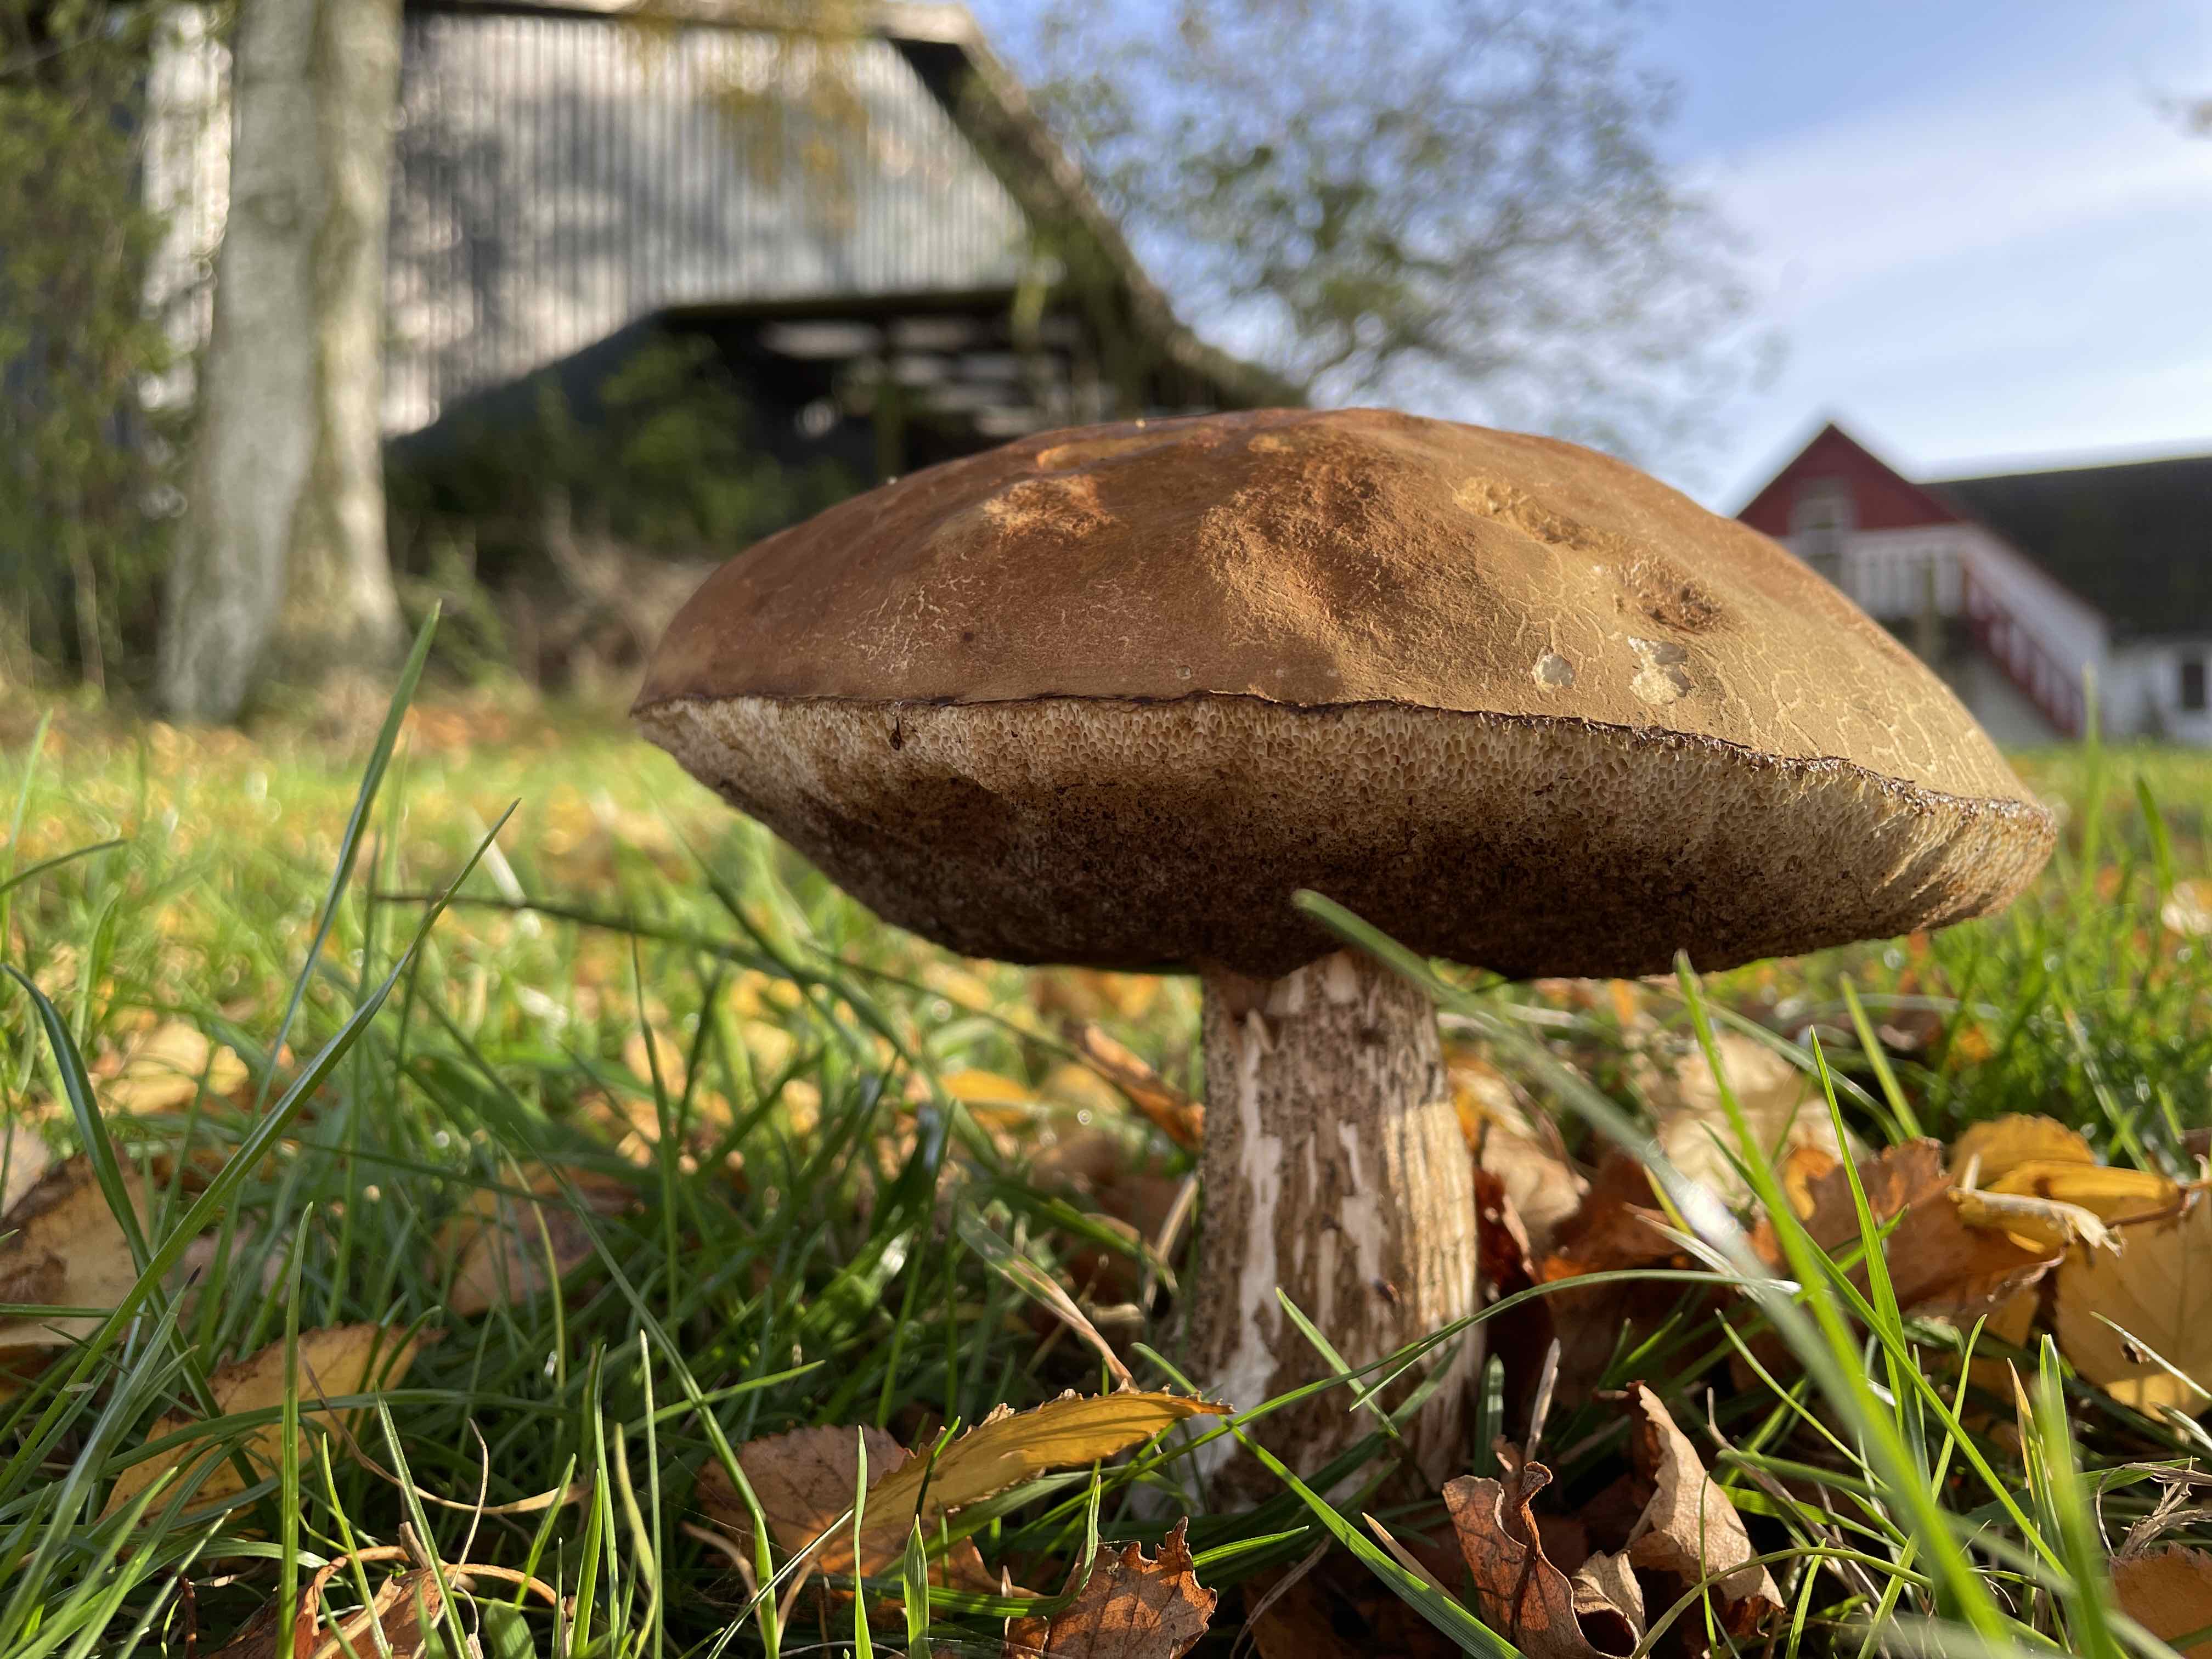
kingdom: Fungi
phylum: Basidiomycota
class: Agaricomycetes
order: Boletales
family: Boletaceae
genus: Leccinum
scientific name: Leccinum scabrum
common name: brun skælrørhat
